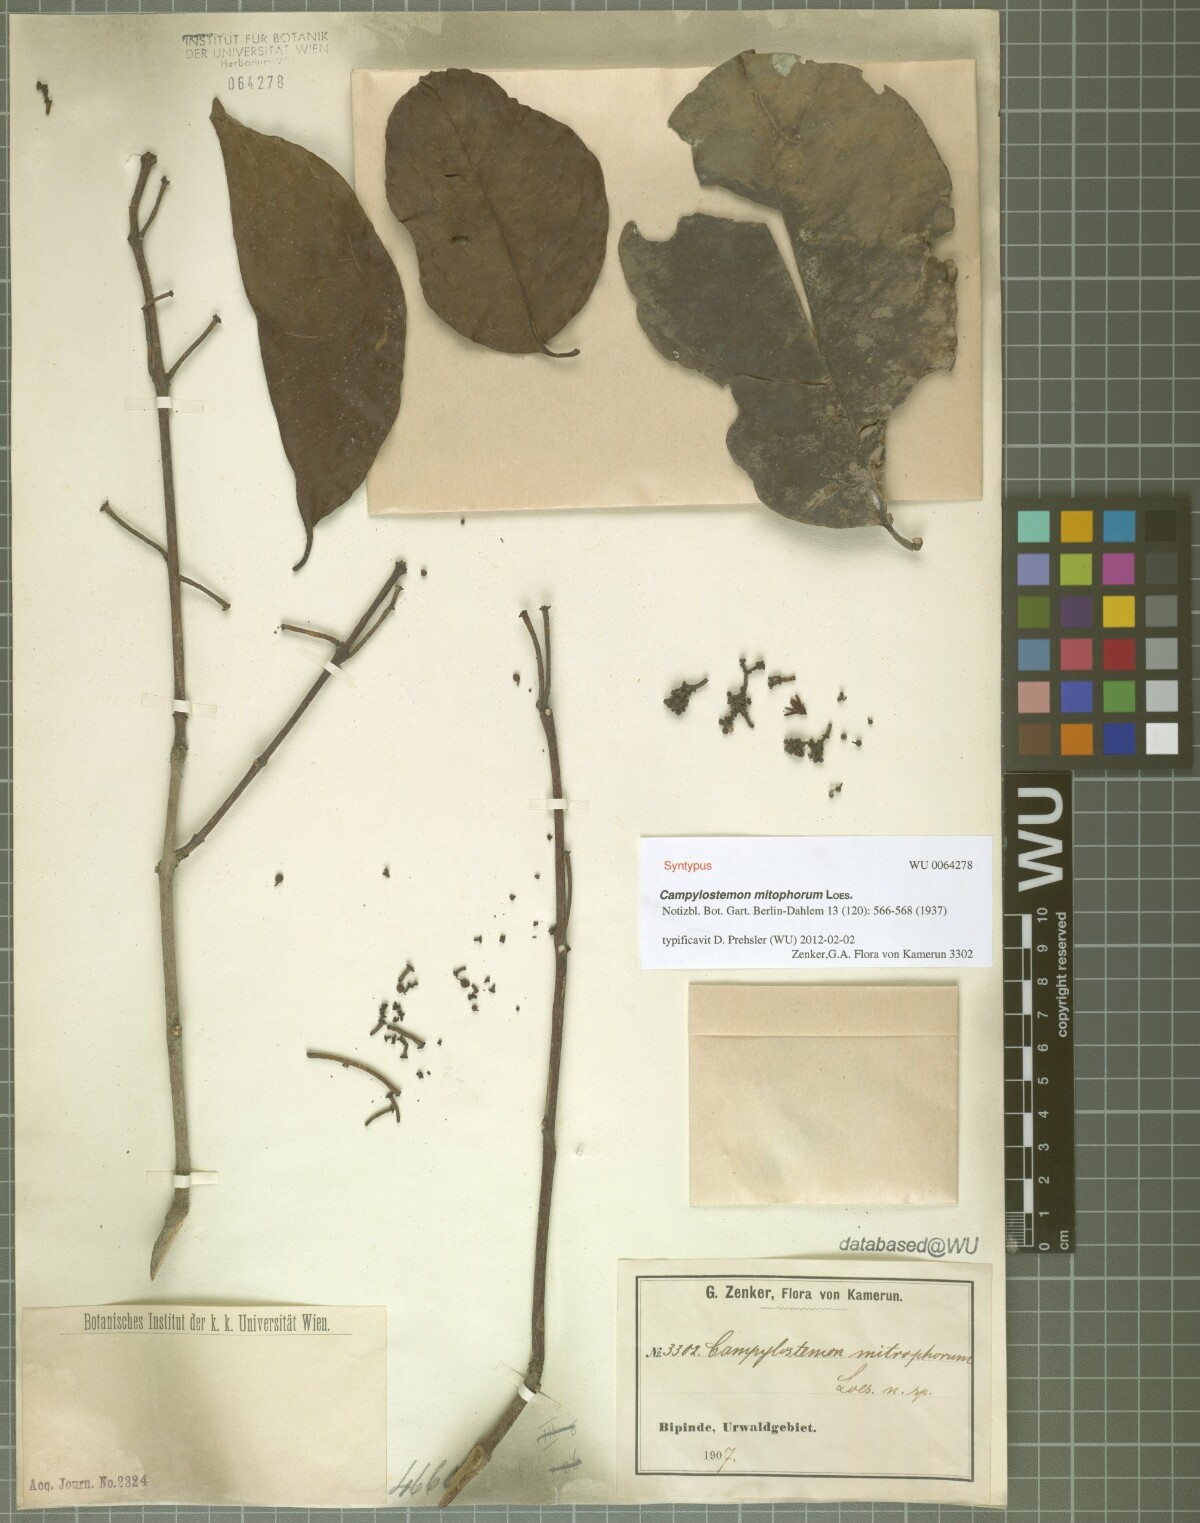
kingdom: Plantae
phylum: Tracheophyta
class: Magnoliopsida
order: Celastrales
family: Celastraceae
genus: Campylostemon
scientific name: Campylostemon mitophorum
